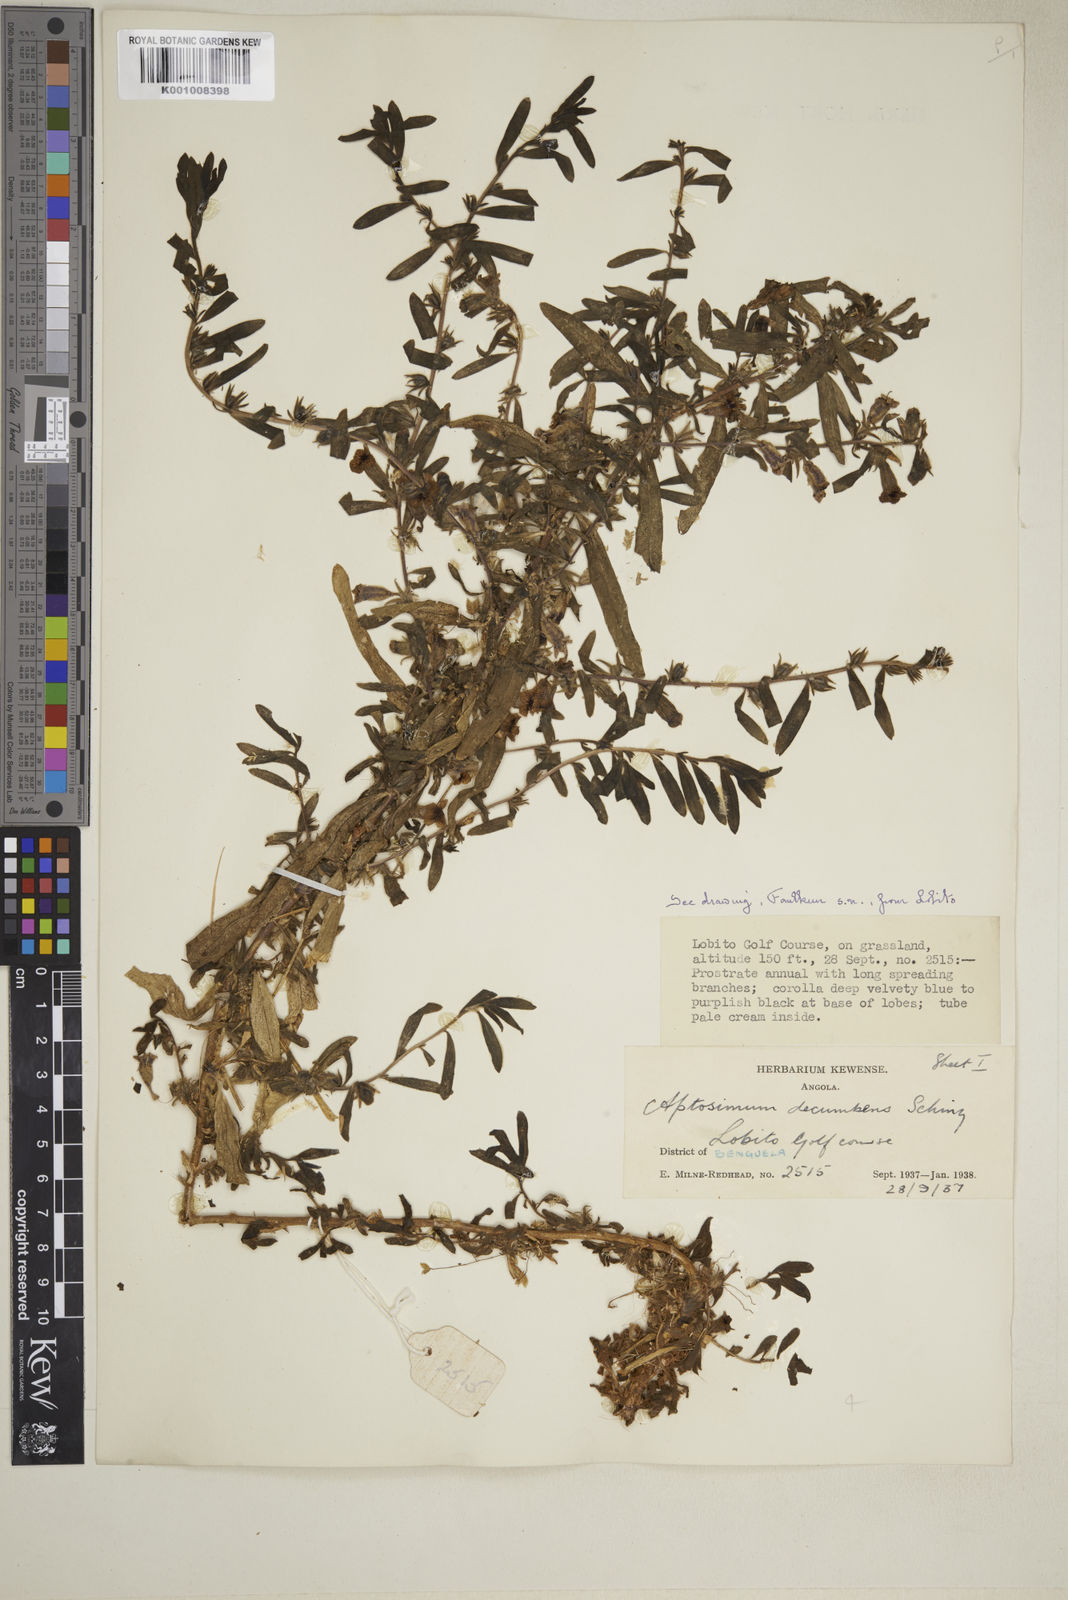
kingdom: Plantae
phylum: Tracheophyta
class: Magnoliopsida
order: Lamiales
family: Scrophulariaceae
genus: Aptosimum
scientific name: Aptosimum decumbens
